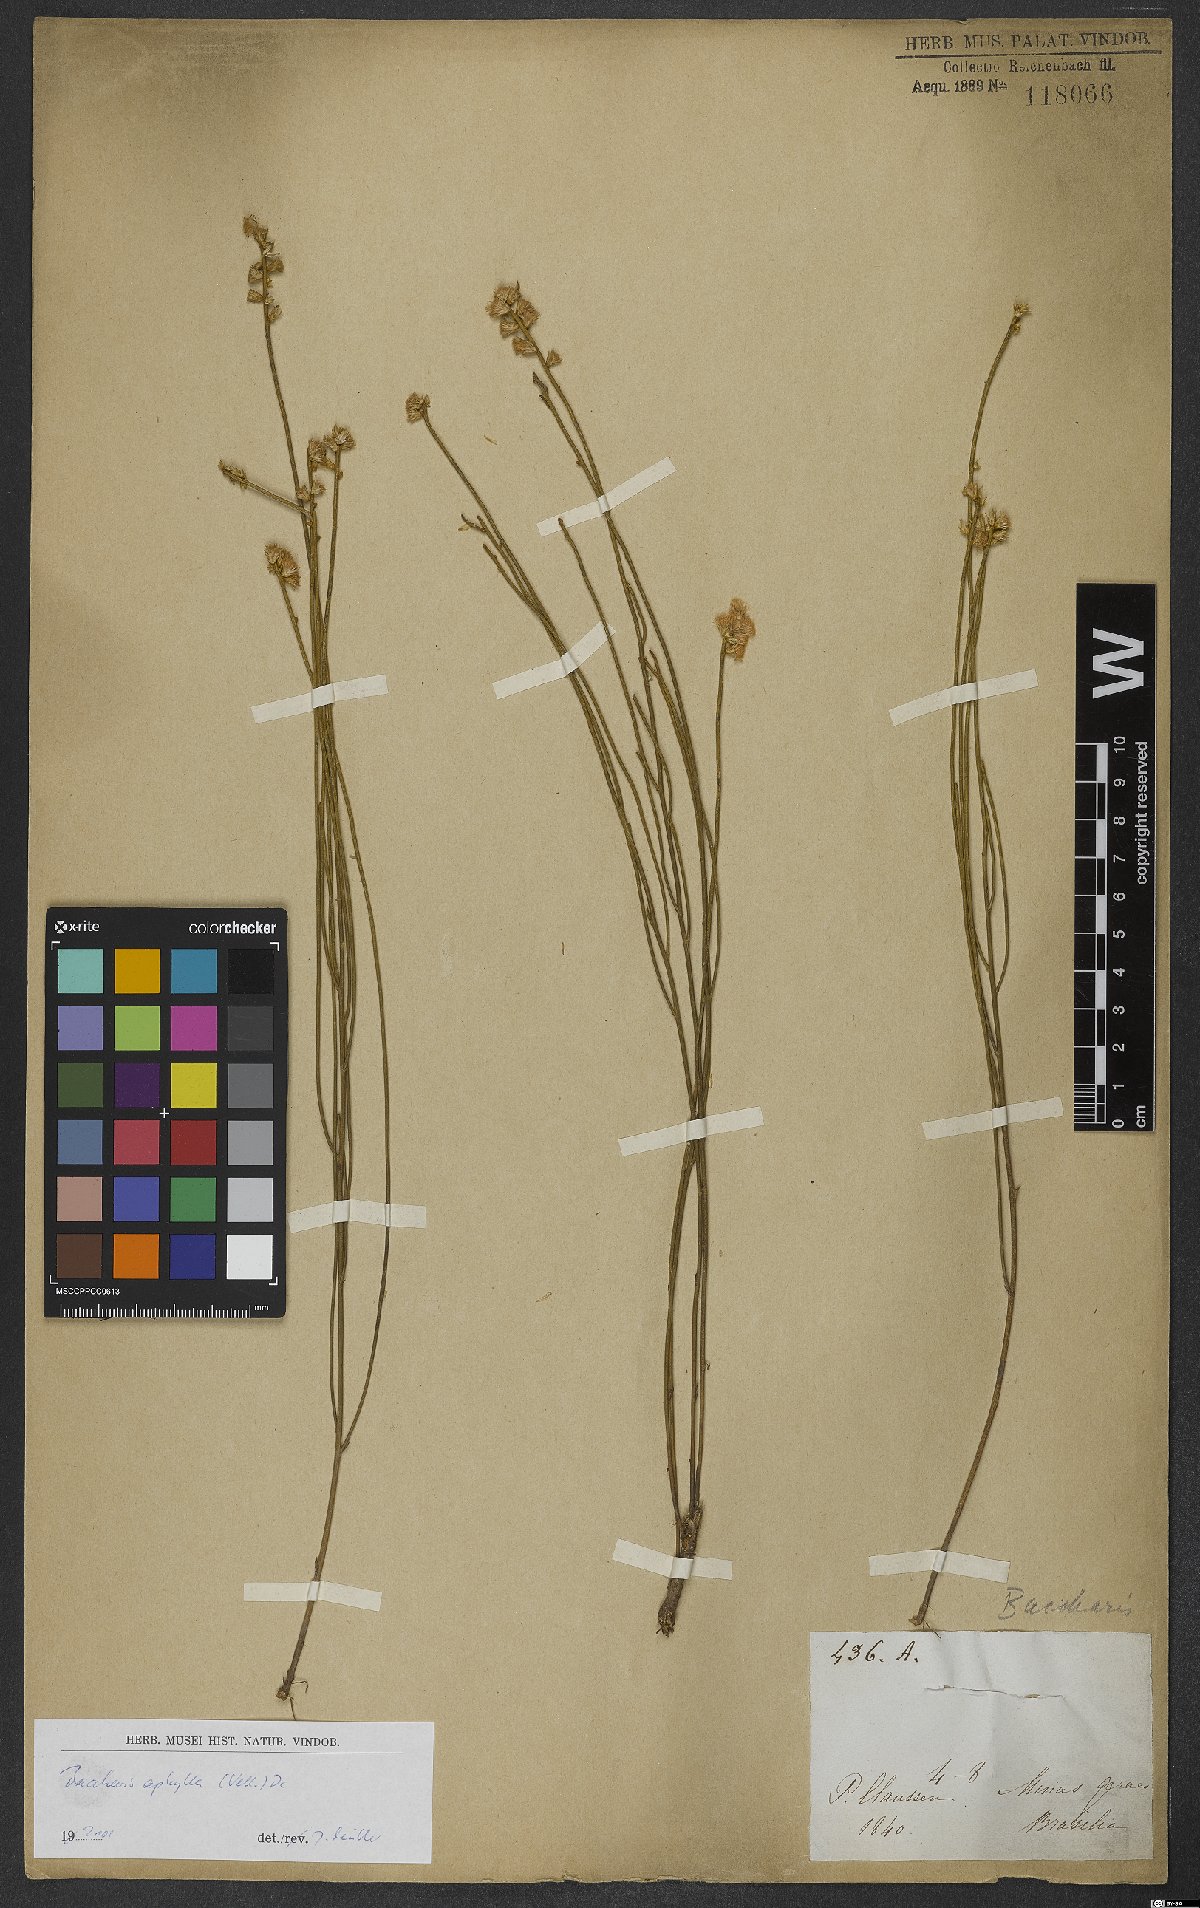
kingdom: Plantae
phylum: Tracheophyta
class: Magnoliopsida
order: Asterales
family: Asteraceae
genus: Baccharis
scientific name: Baccharis aphylla
